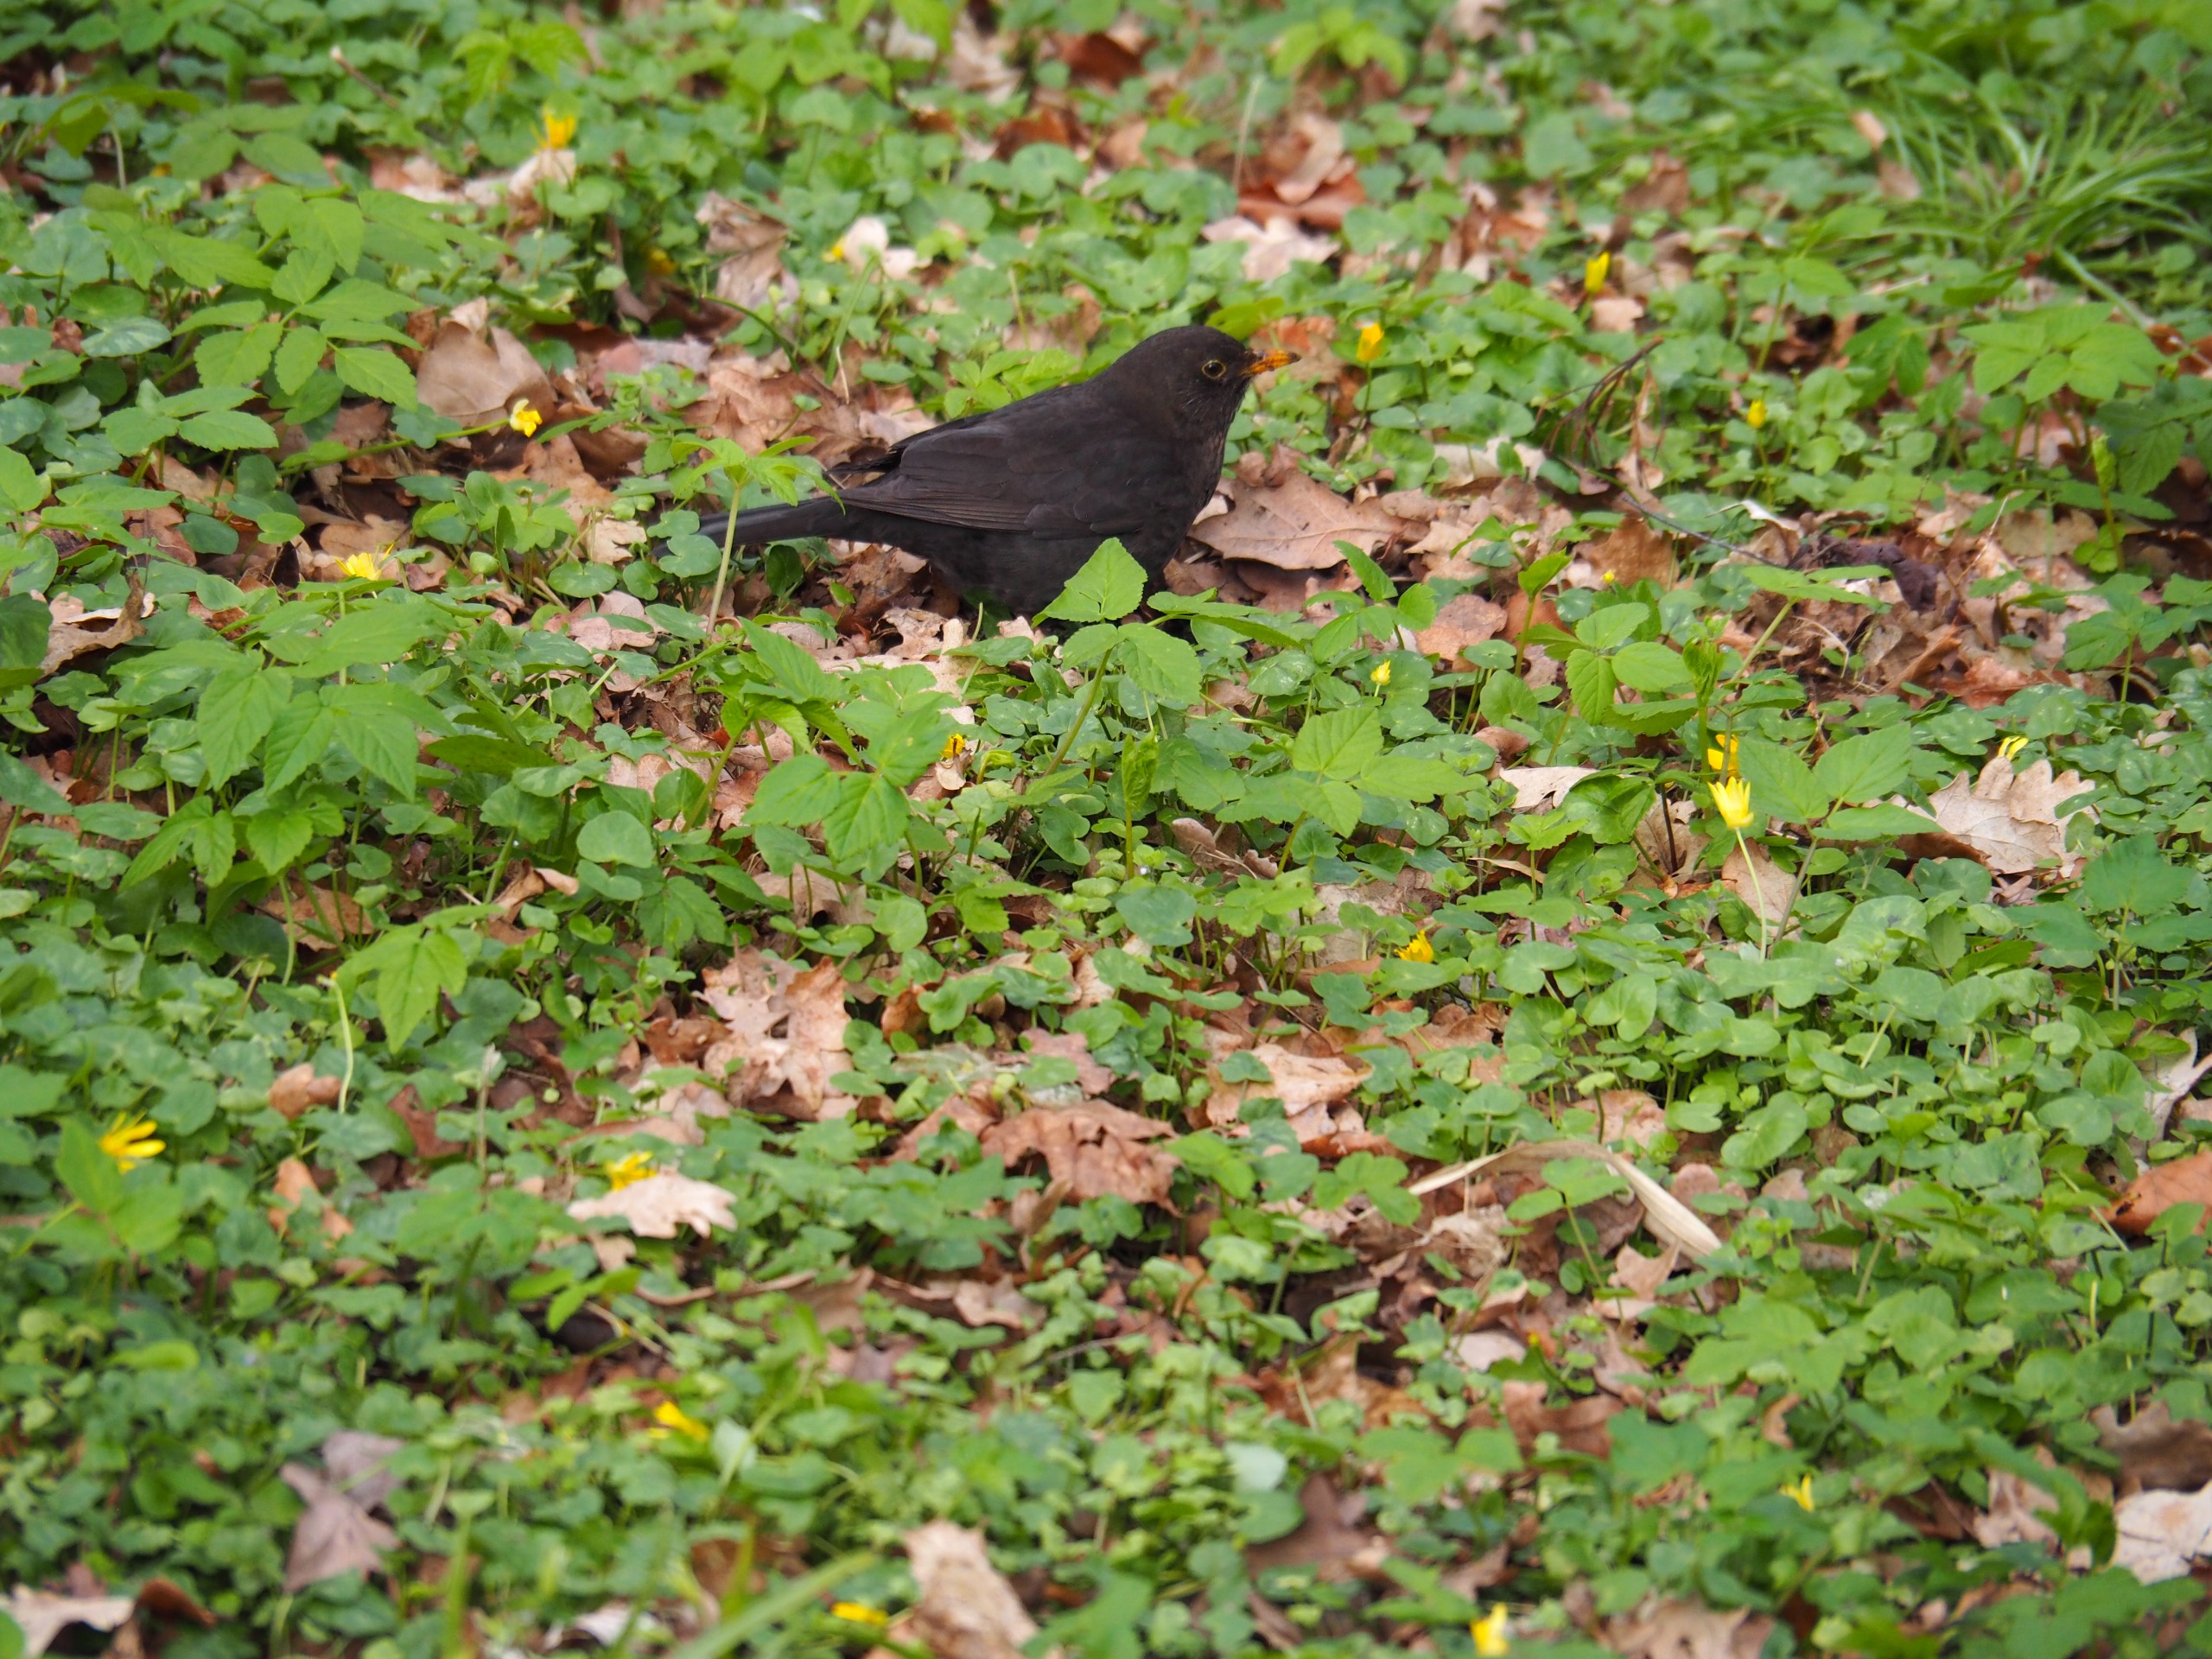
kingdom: Animalia
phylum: Chordata
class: Aves
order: Passeriformes
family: Turdidae
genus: Turdus
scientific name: Turdus merula
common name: Solsort
